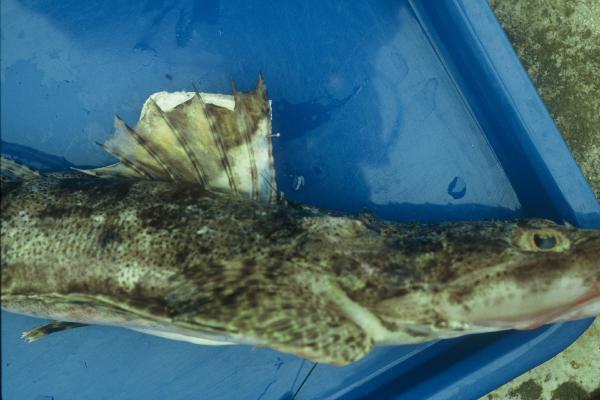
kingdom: Animalia
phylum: Chordata
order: Scorpaeniformes
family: Platycephalidae
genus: Cociella
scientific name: Cociella crocodilus
